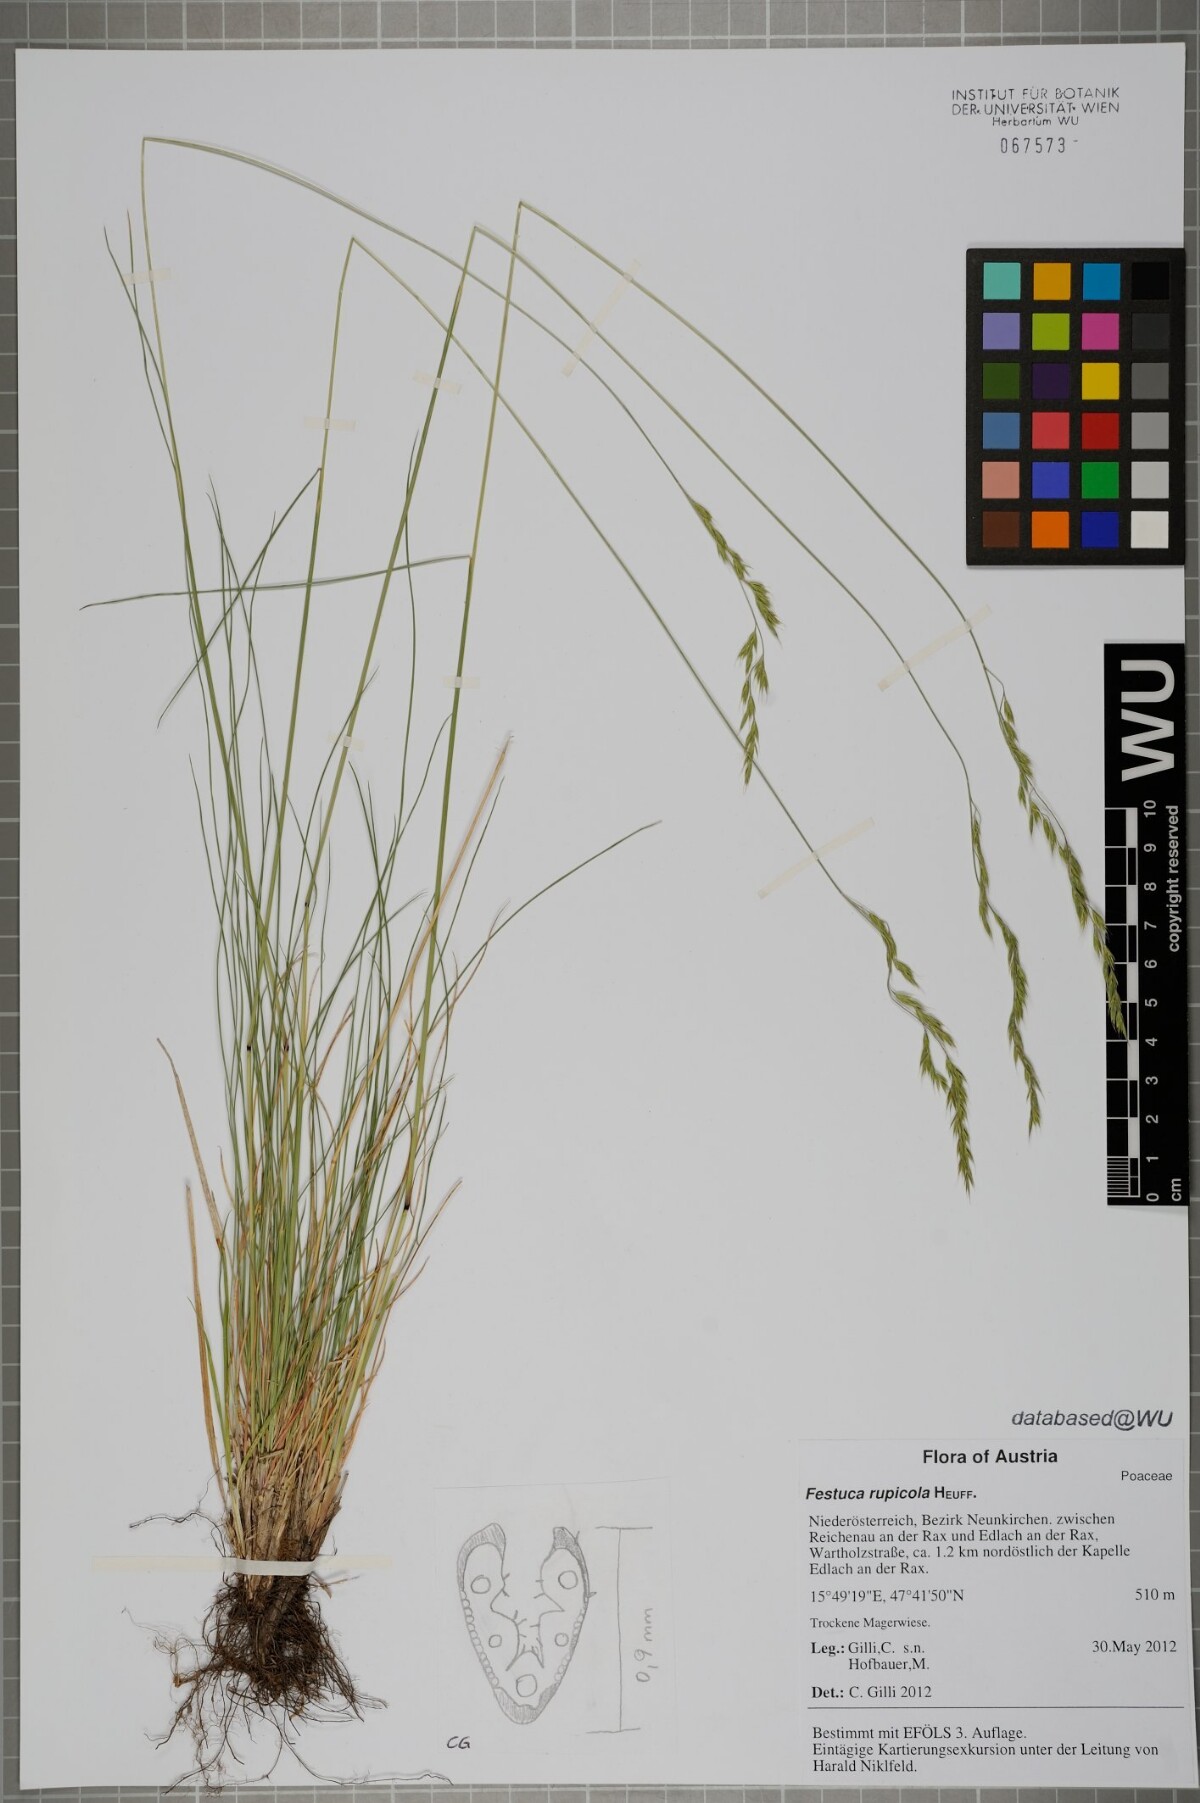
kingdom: Plantae
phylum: Tracheophyta
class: Liliopsida
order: Poales
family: Poaceae
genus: Festuca
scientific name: Festuca rupicola
